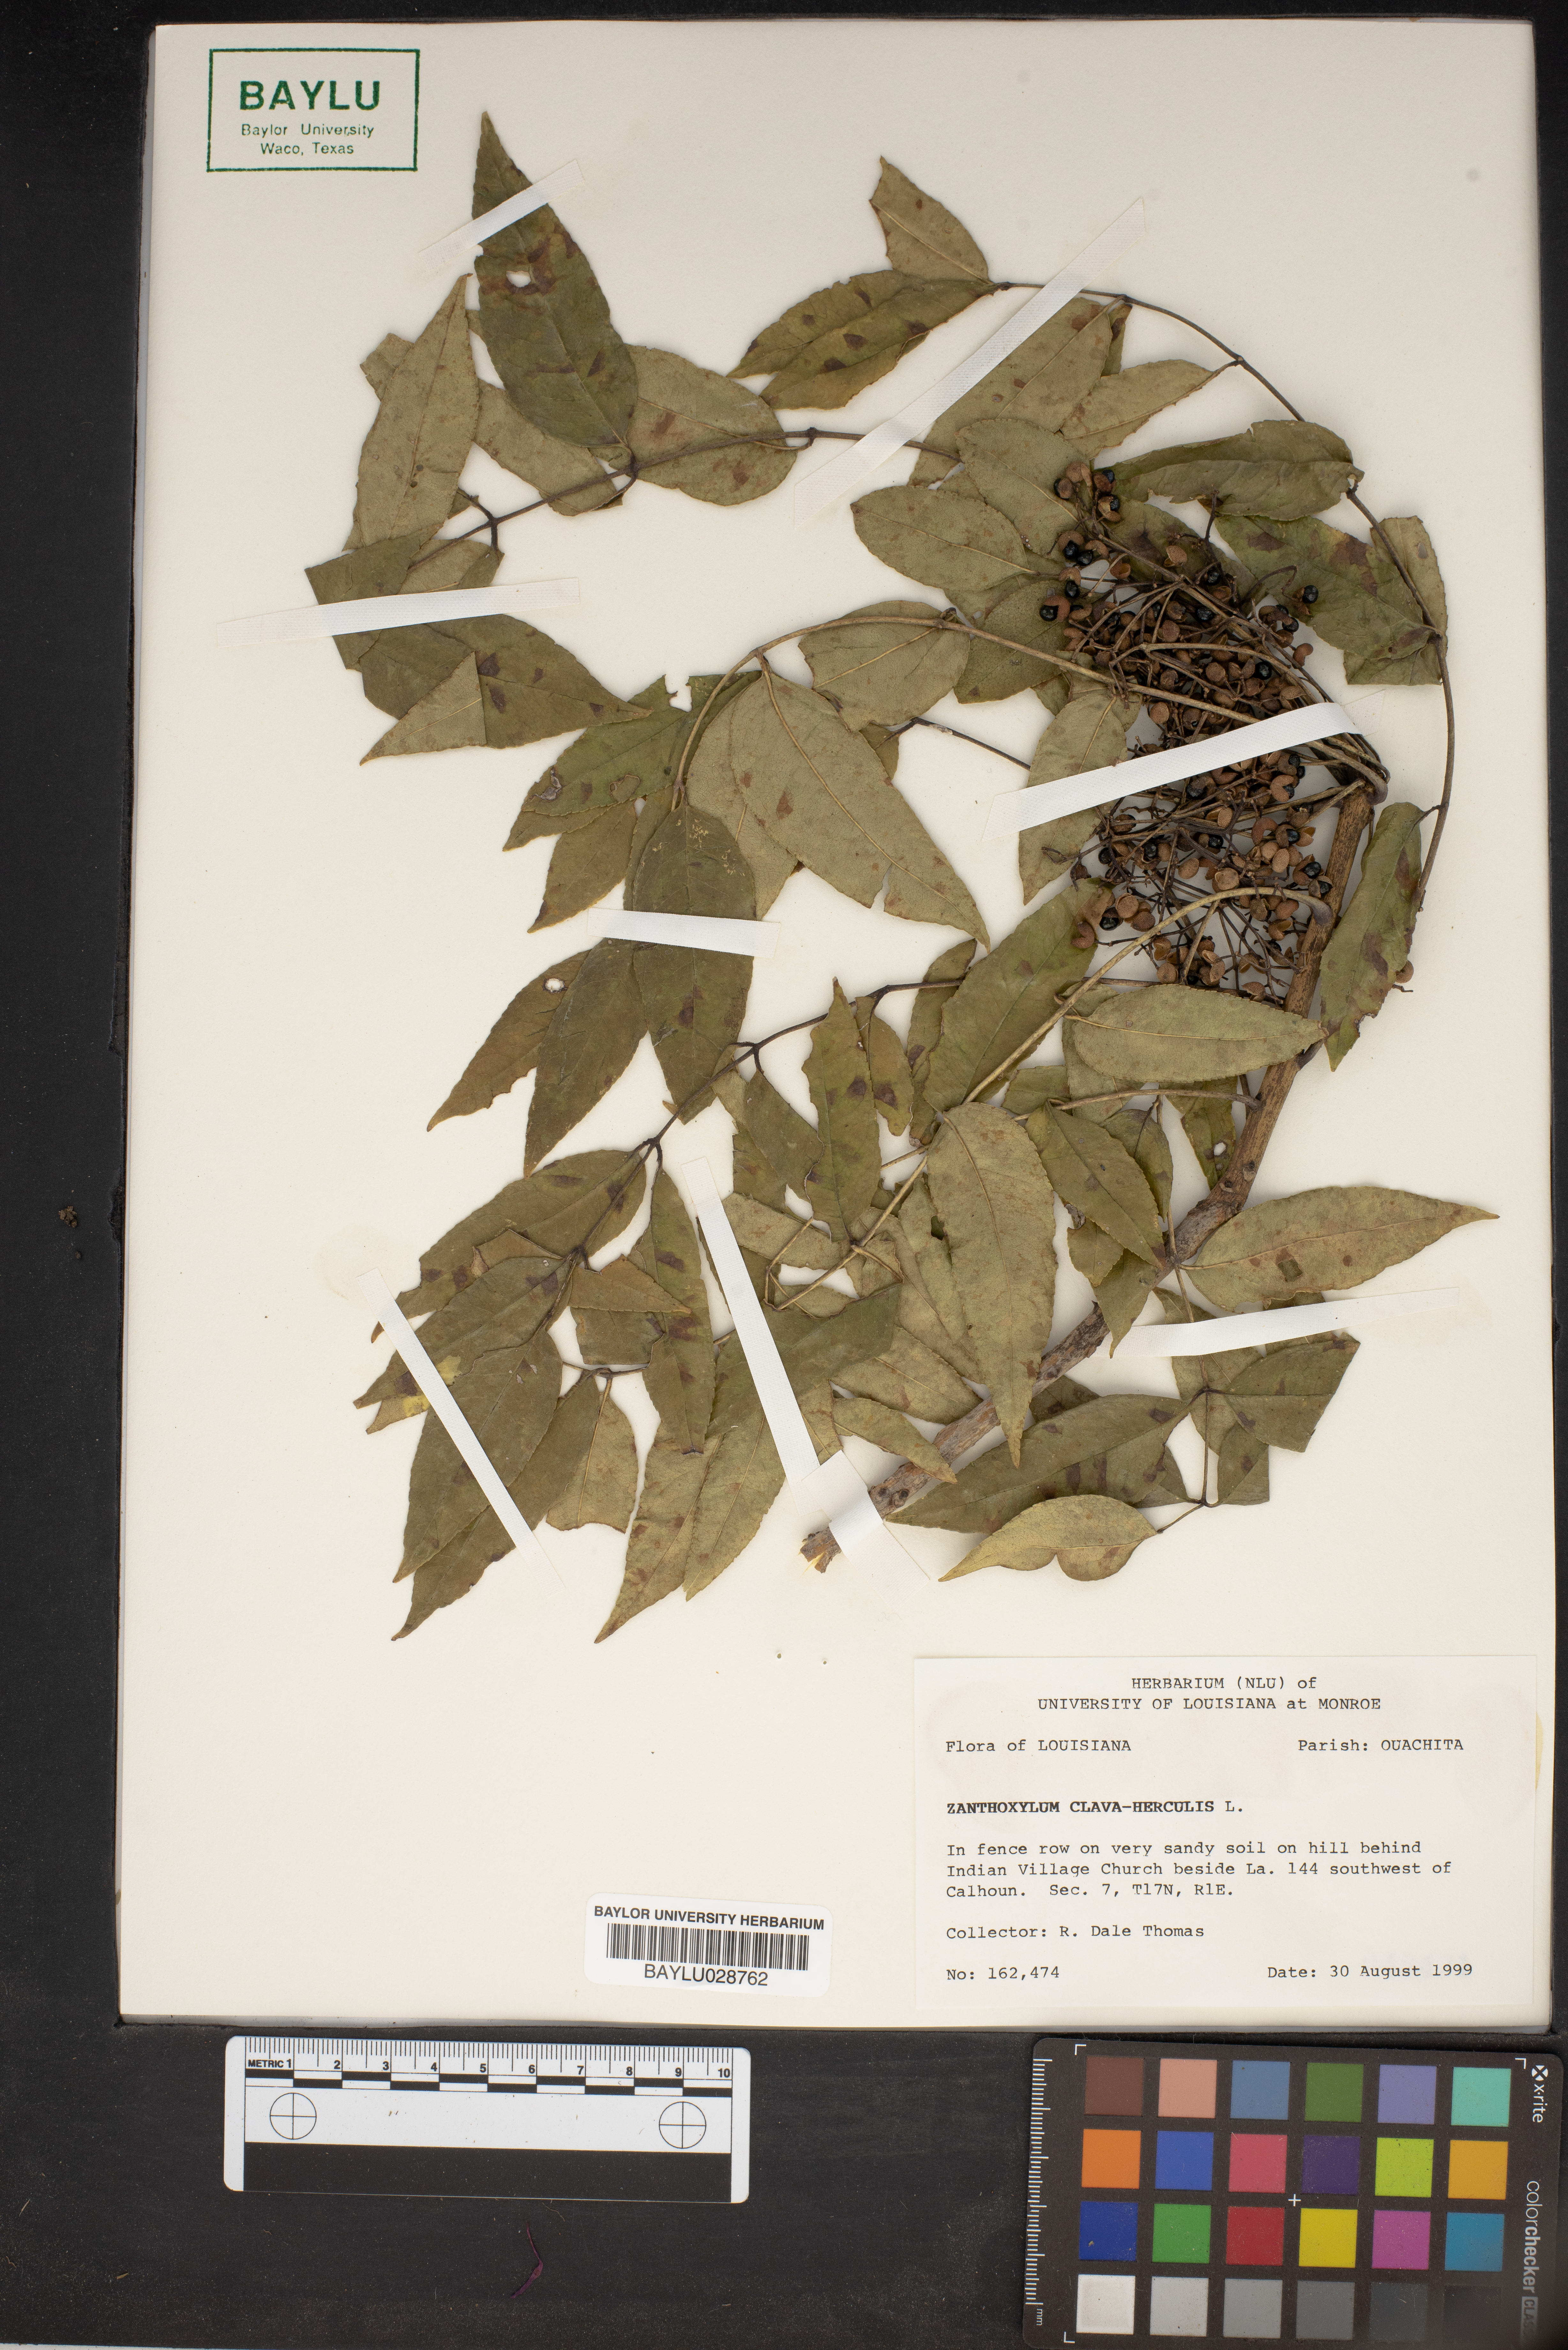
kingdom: Plantae
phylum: Tracheophyta
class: Magnoliopsida
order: Sapindales
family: Rutaceae
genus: Zanthoxylum
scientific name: Zanthoxylum avicennae
